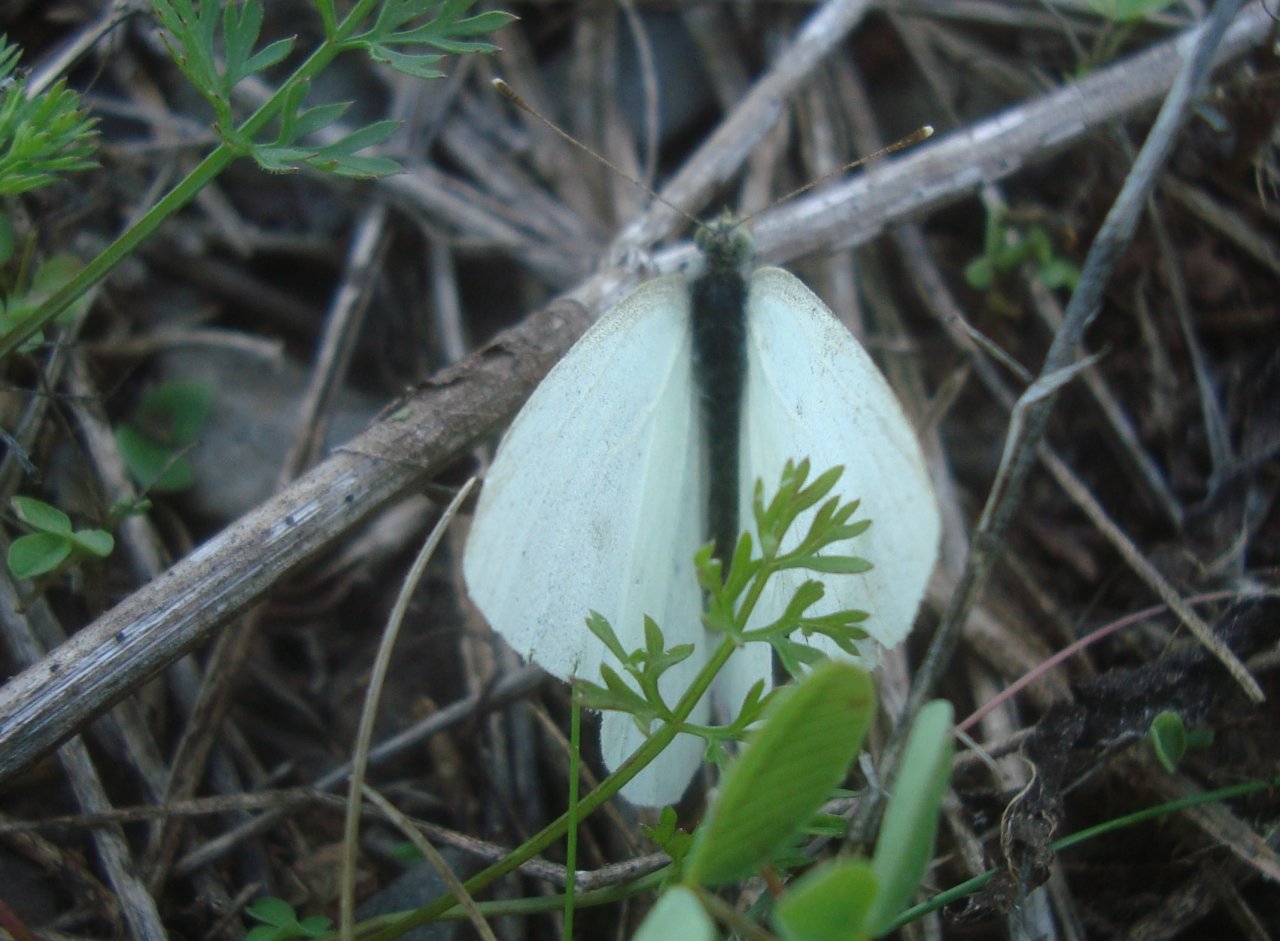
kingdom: Animalia
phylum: Arthropoda
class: Insecta
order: Lepidoptera
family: Pieridae
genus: Pieris
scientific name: Pieris rapae
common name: Cabbage White
